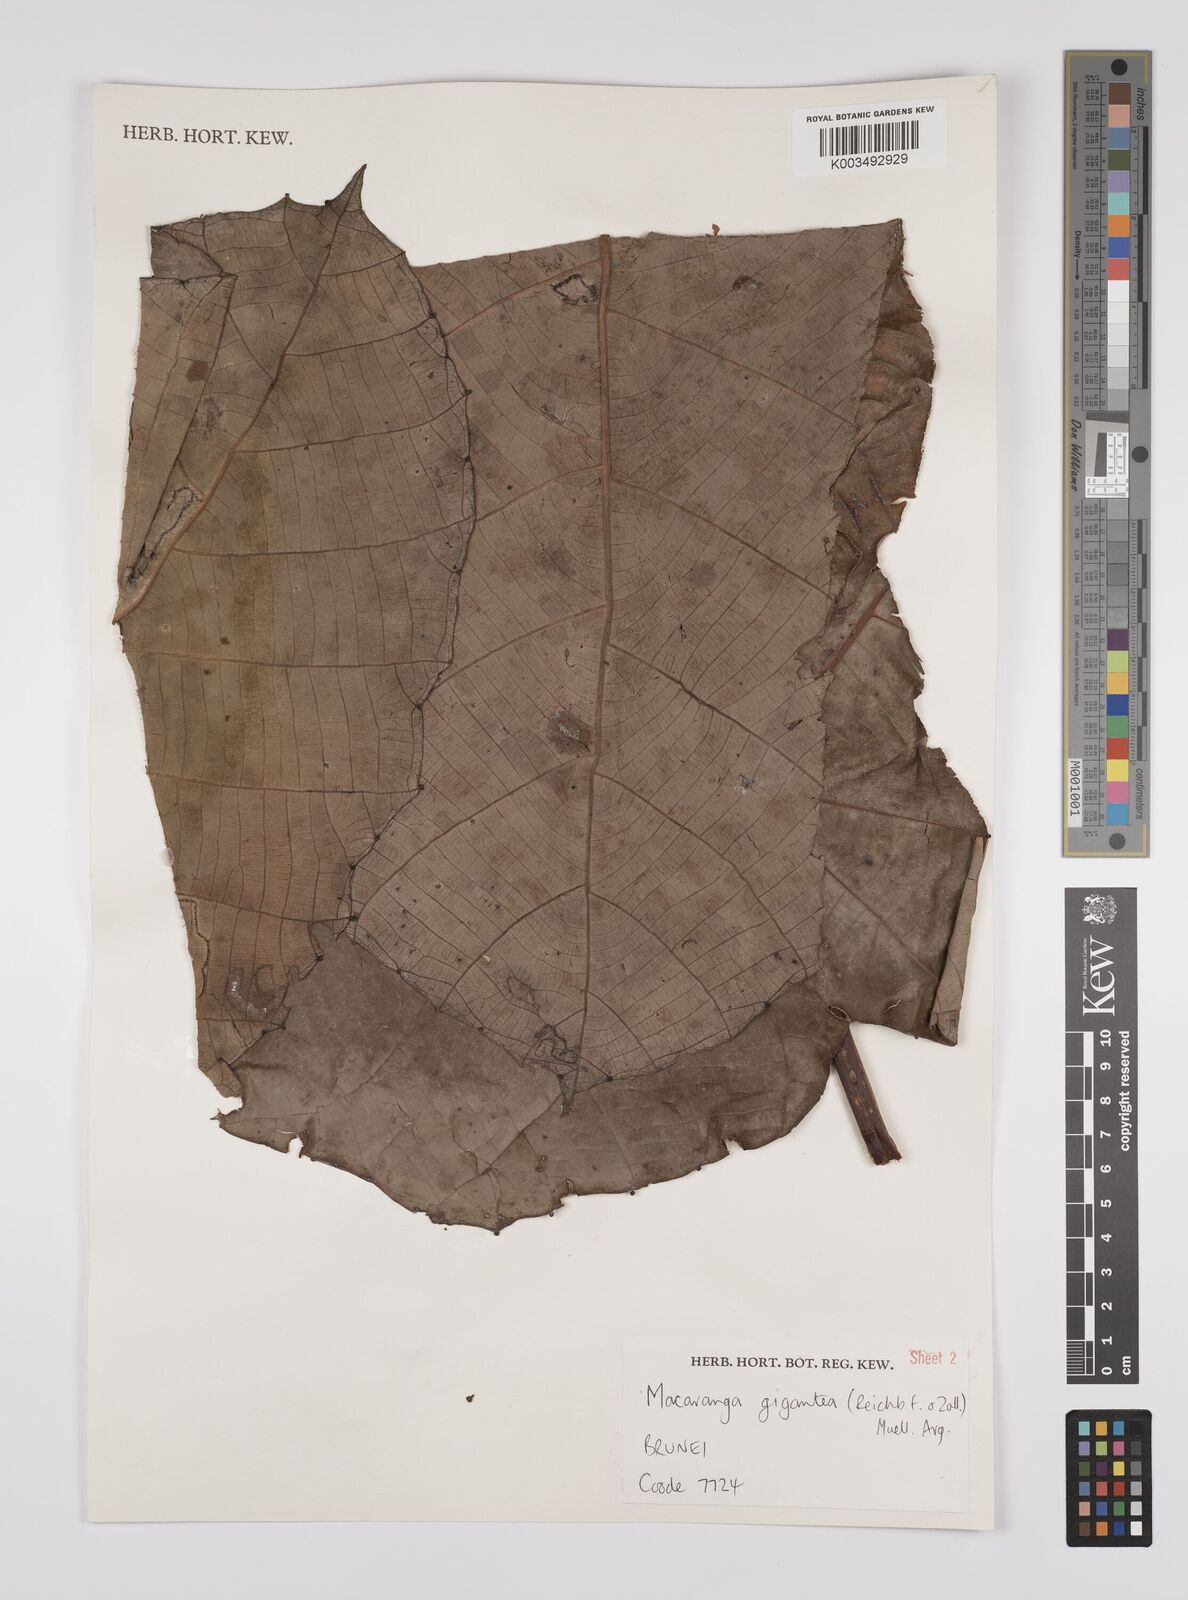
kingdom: Plantae
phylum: Tracheophyta
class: Magnoliopsida
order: Malpighiales
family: Euphorbiaceae
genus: Macaranga
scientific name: Macaranga gigantea
